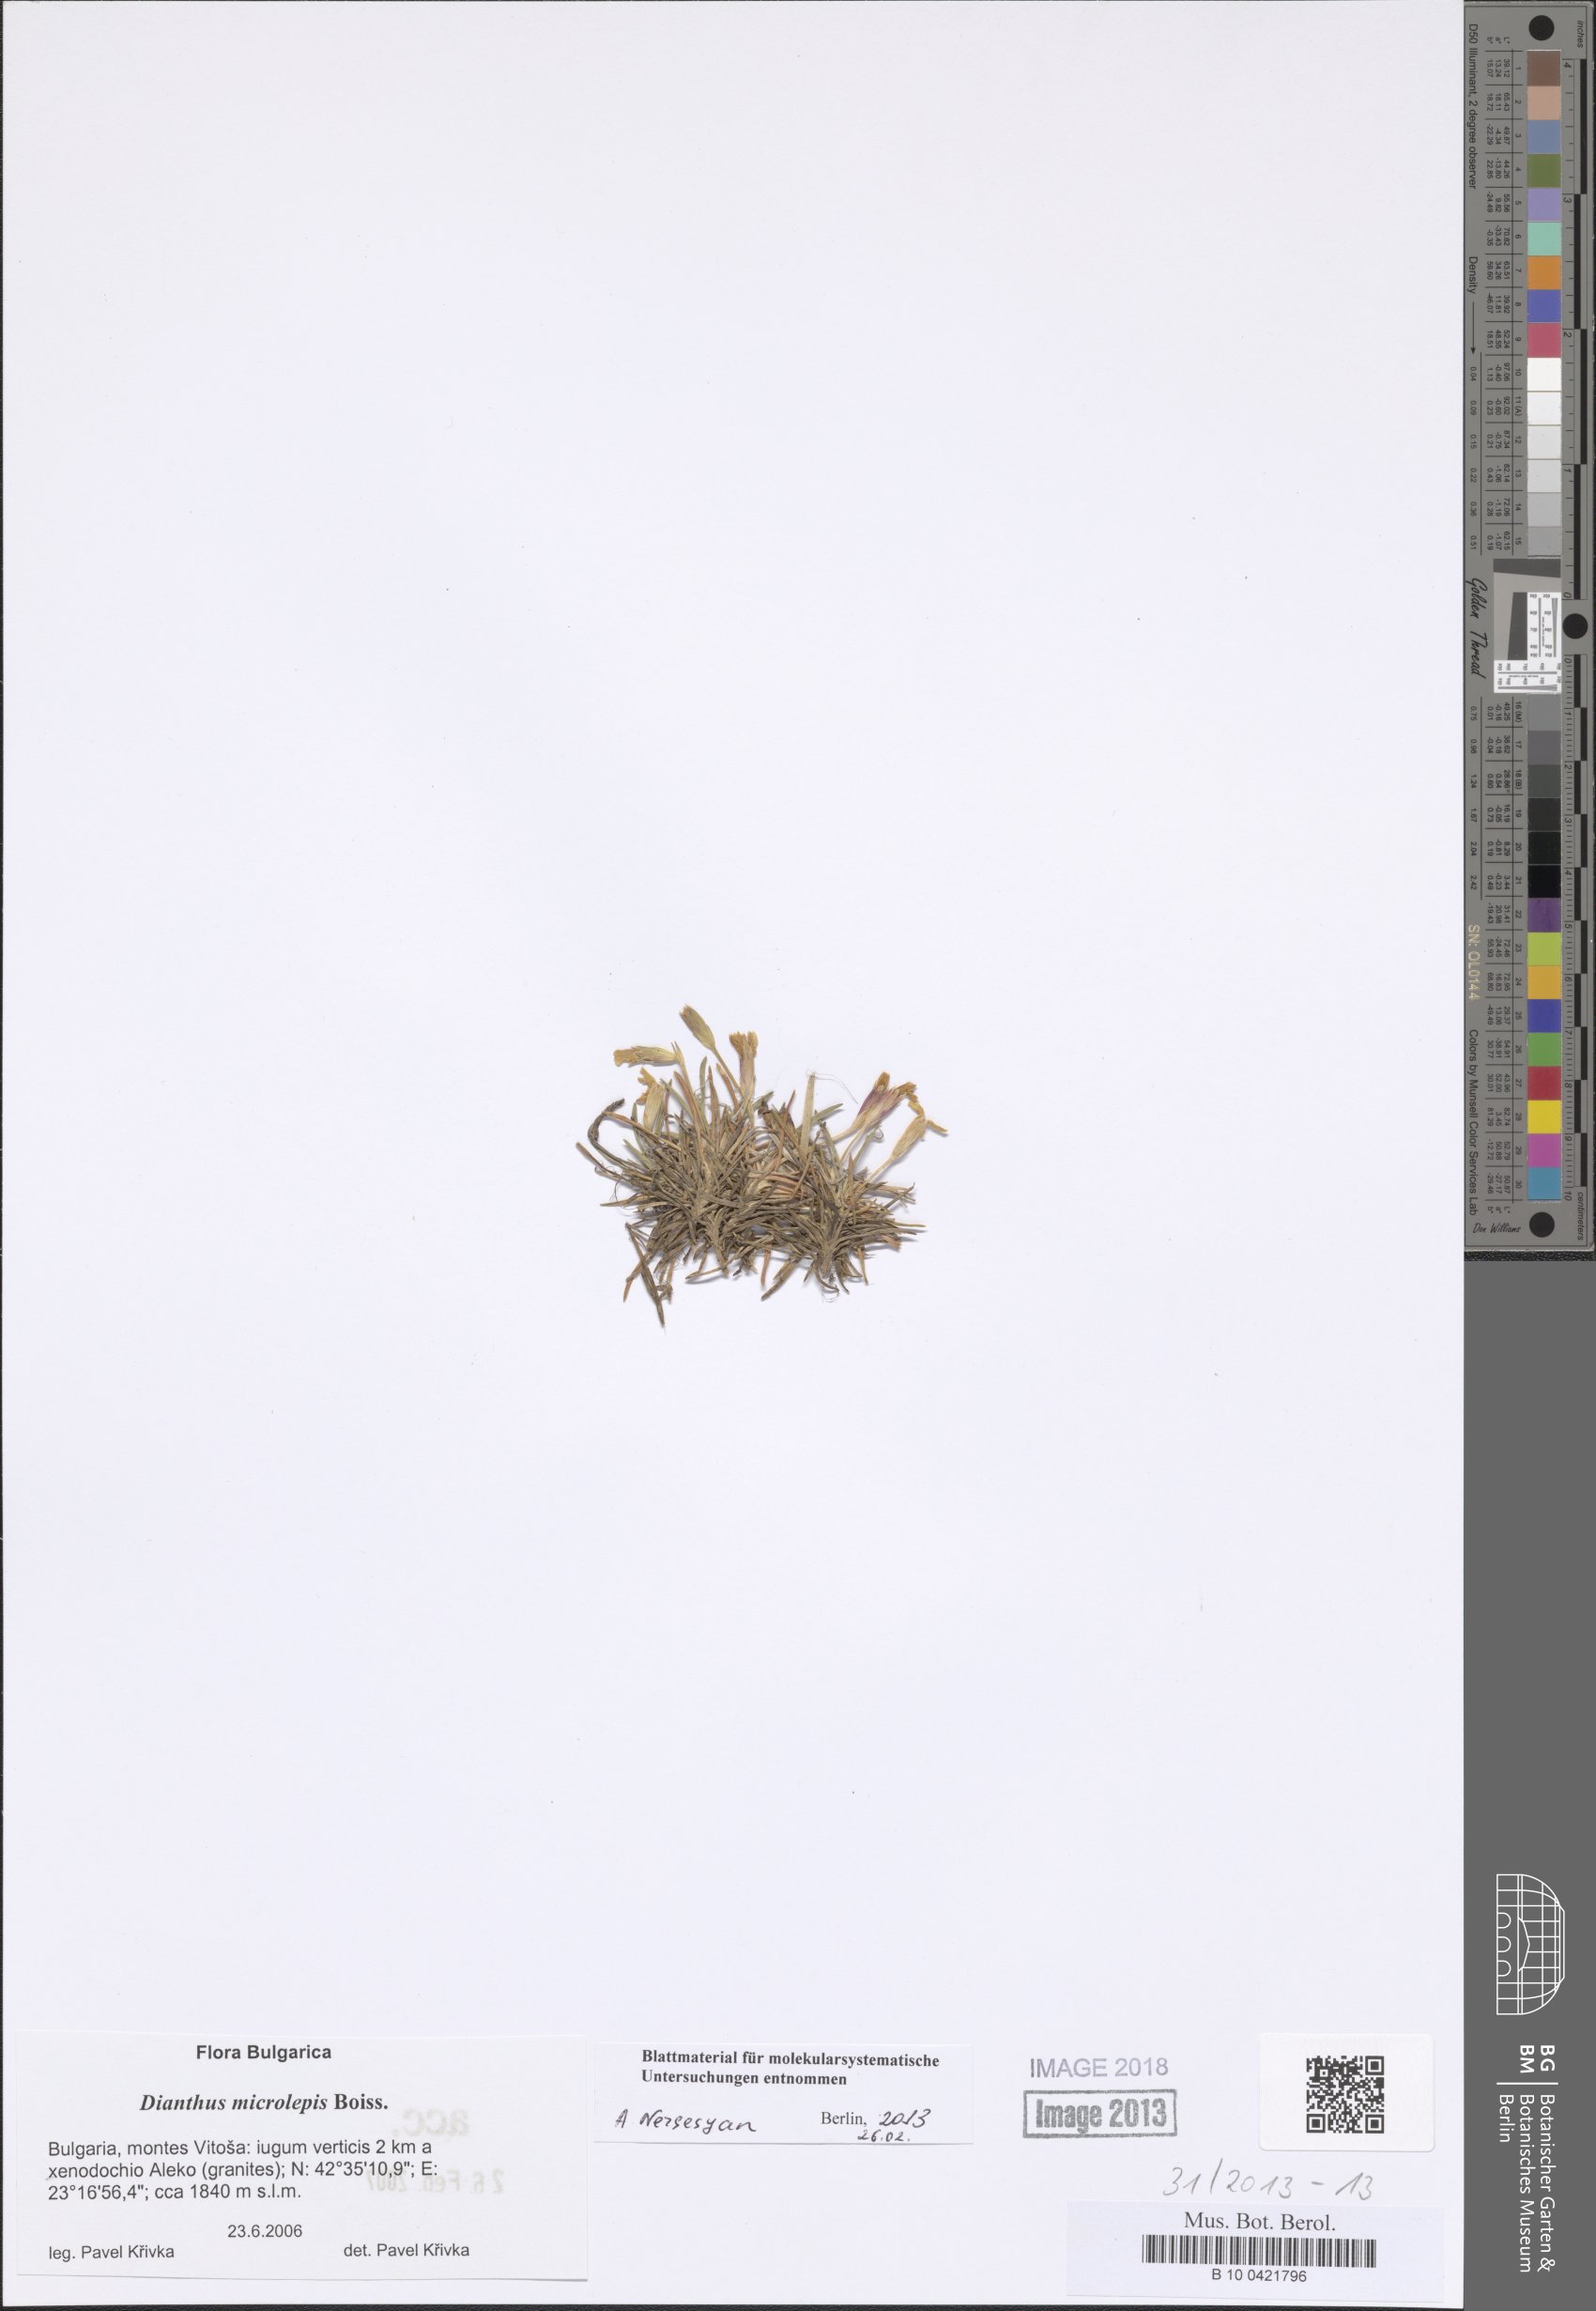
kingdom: Plantae
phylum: Tracheophyta
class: Magnoliopsida
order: Caryophyllales
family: Caryophyllaceae
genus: Dianthus
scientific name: Dianthus microlepis
